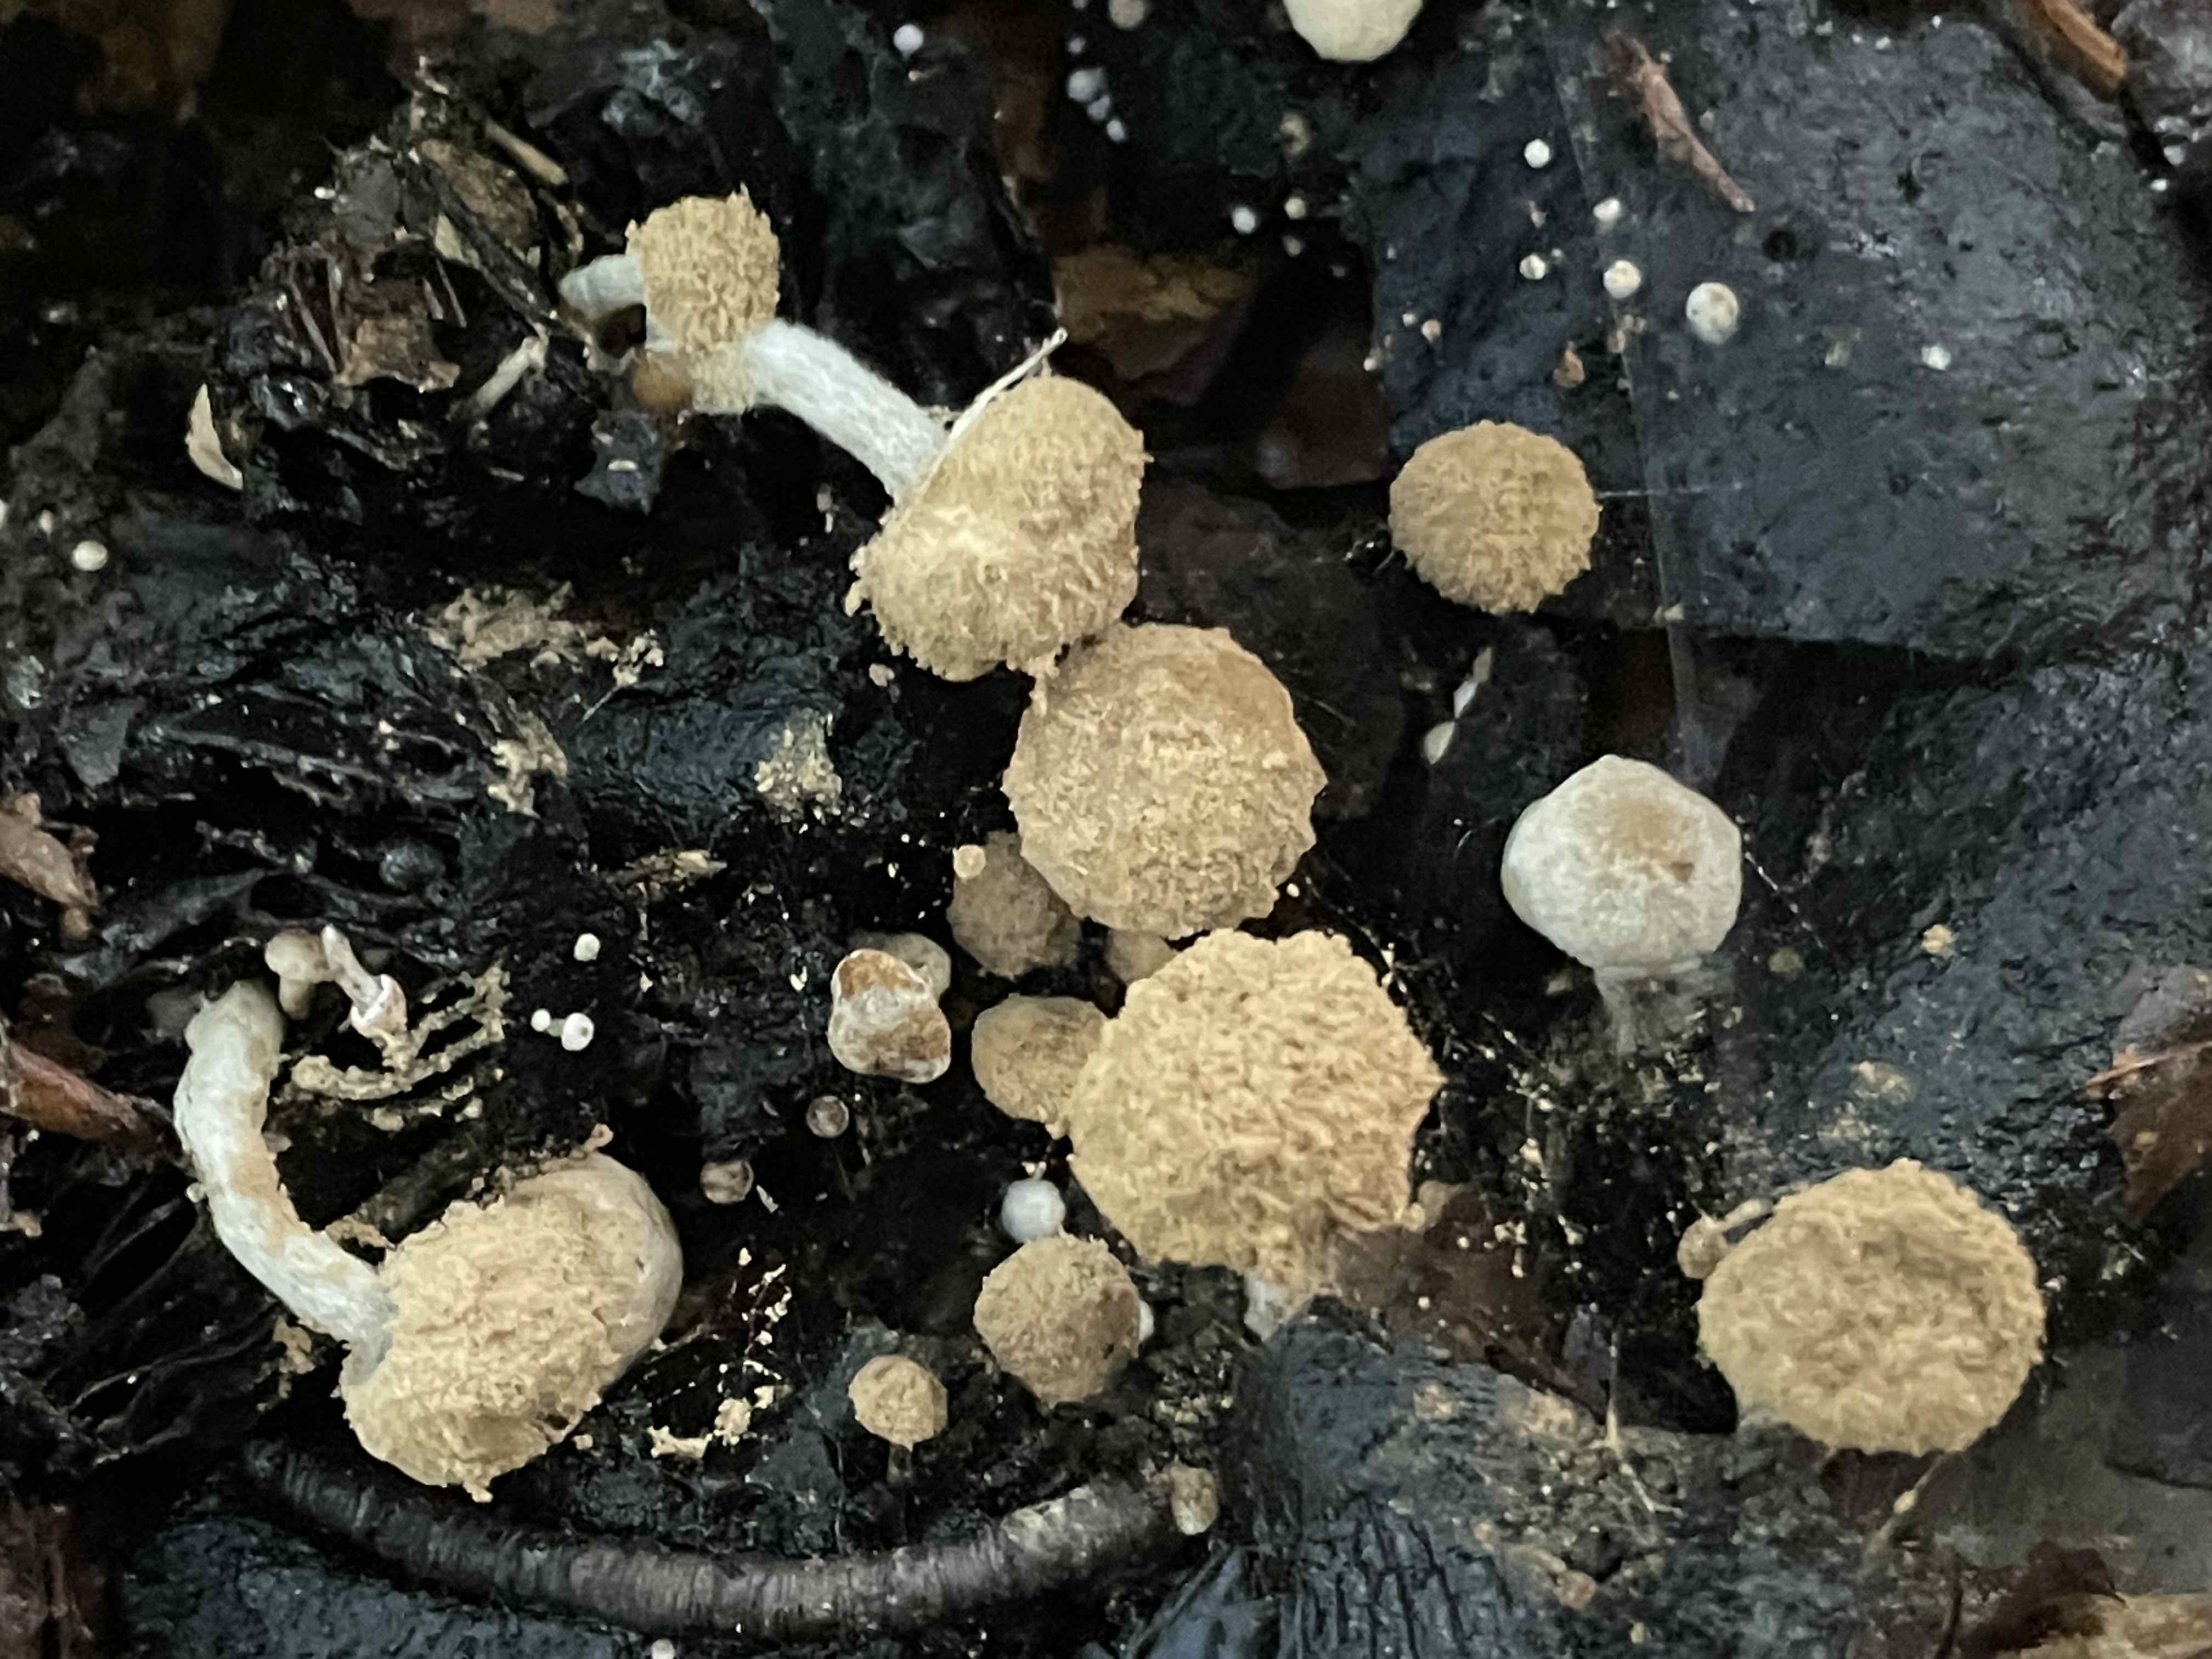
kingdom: Fungi
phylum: Basidiomycota
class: Agaricomycetes
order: Agaricales
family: Lyophyllaceae
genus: Asterophora
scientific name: Asterophora lycoperdoides
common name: brunpudret snyltehat
